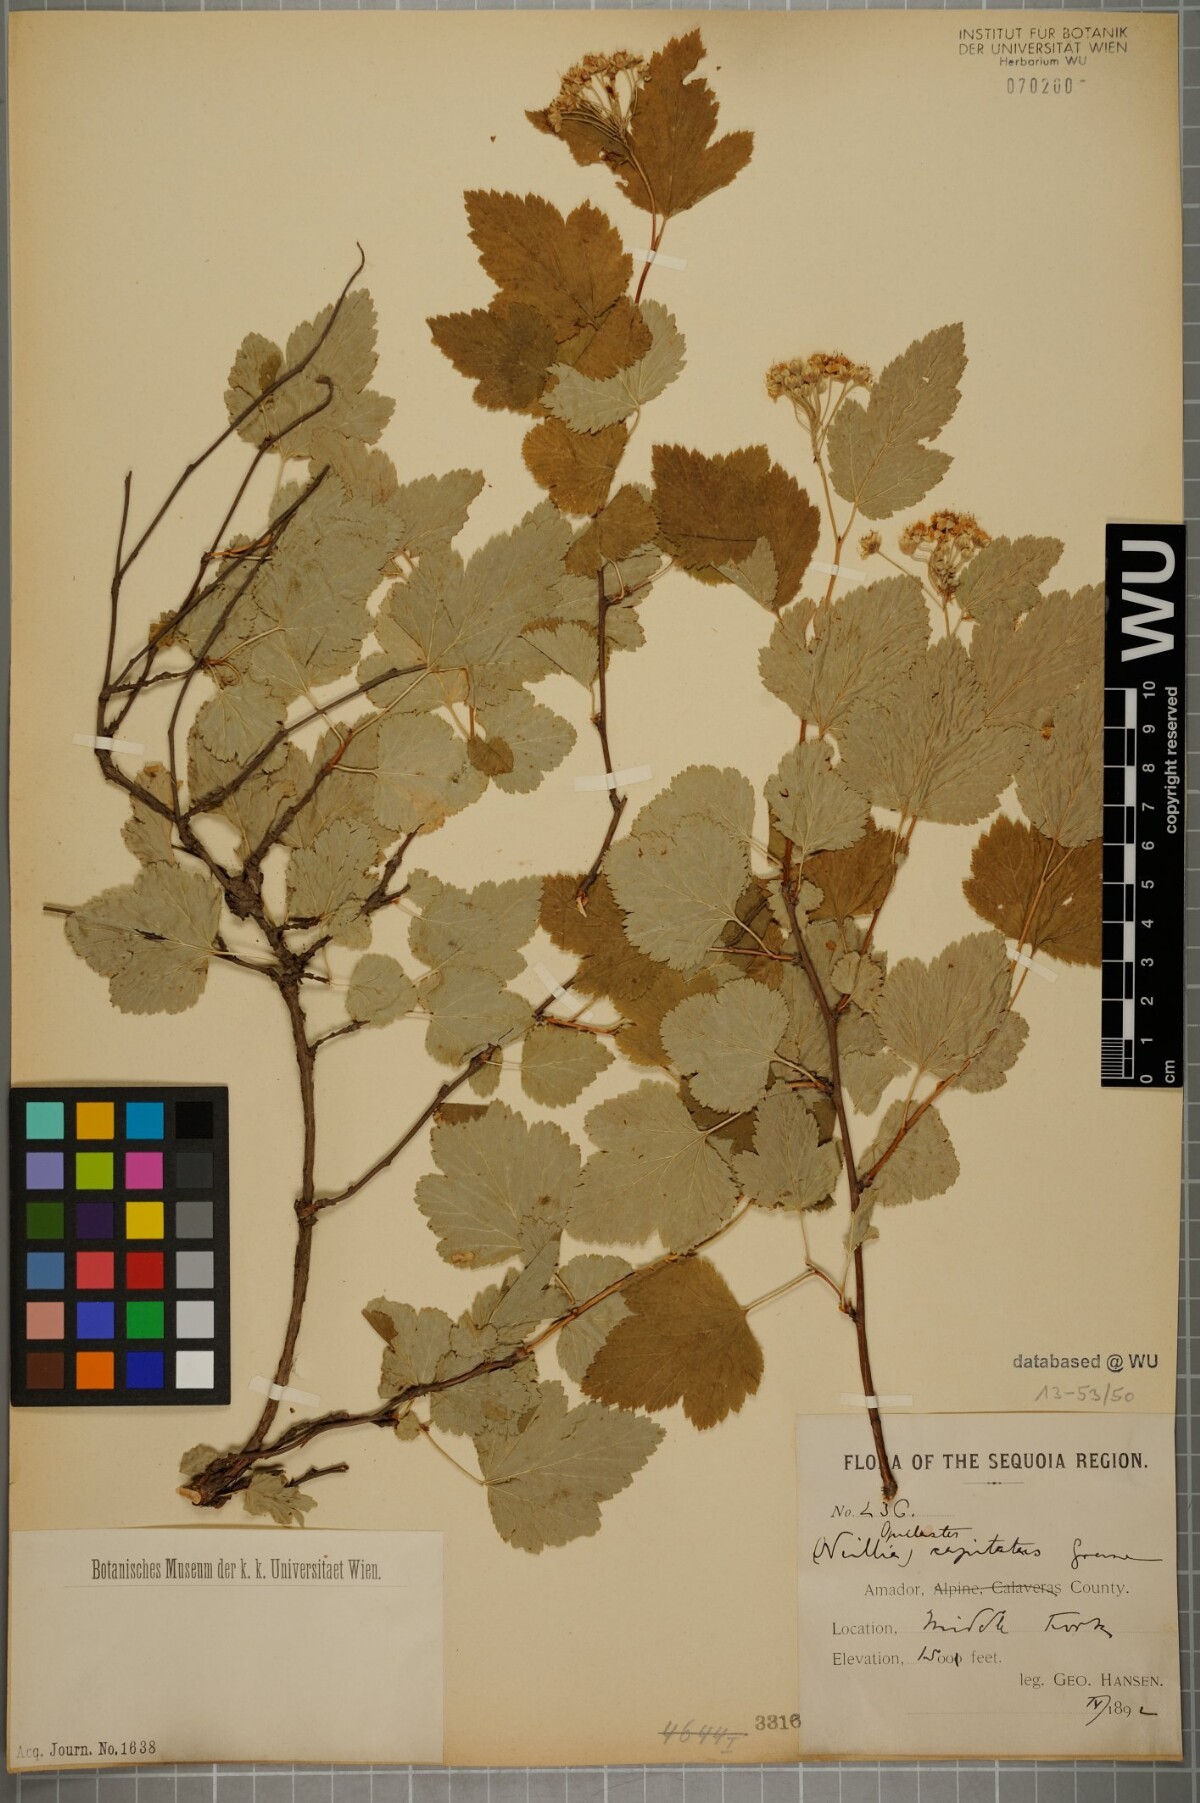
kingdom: Plantae
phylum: Tracheophyta
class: Magnoliopsida
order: Rosales
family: Rosaceae
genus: Physocarpus
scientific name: Physocarpus capitatus
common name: Pacific ninebark
